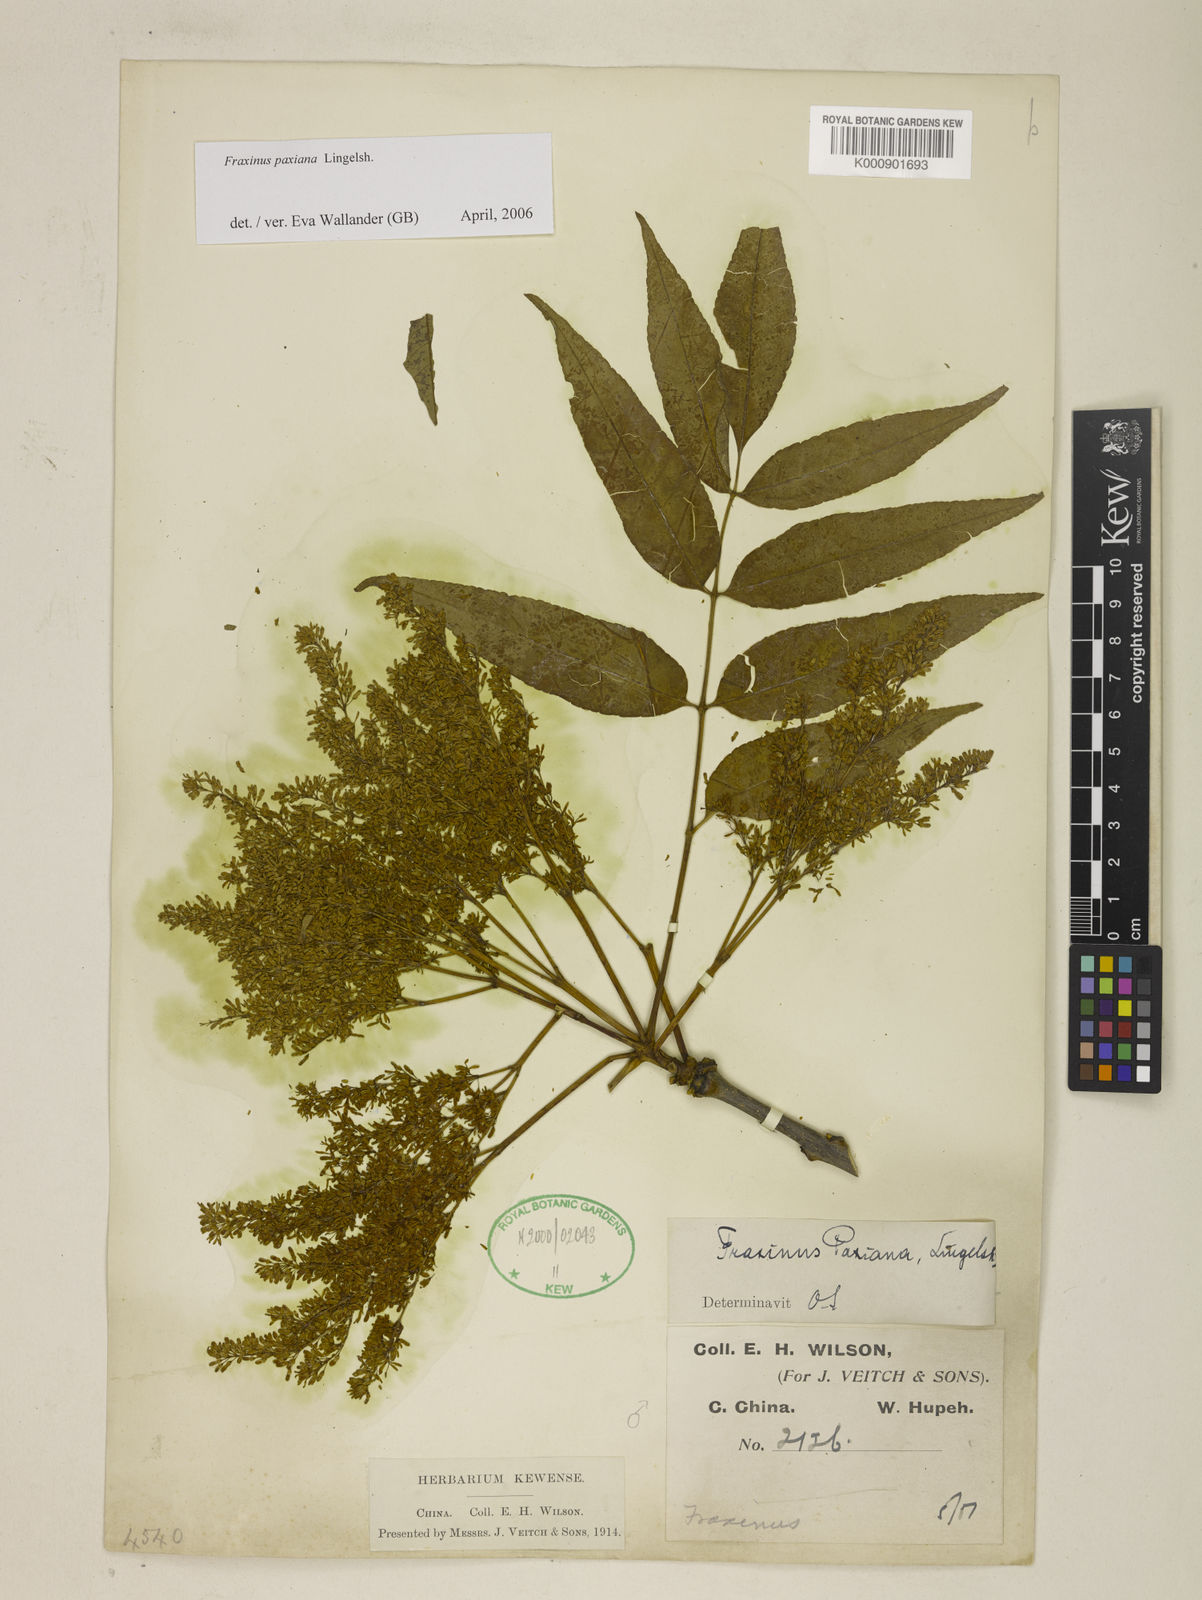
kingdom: Plantae
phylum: Tracheophyta
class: Magnoliopsida
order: Lamiales
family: Oleaceae
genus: Fraxinus
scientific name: Fraxinus paxiana
